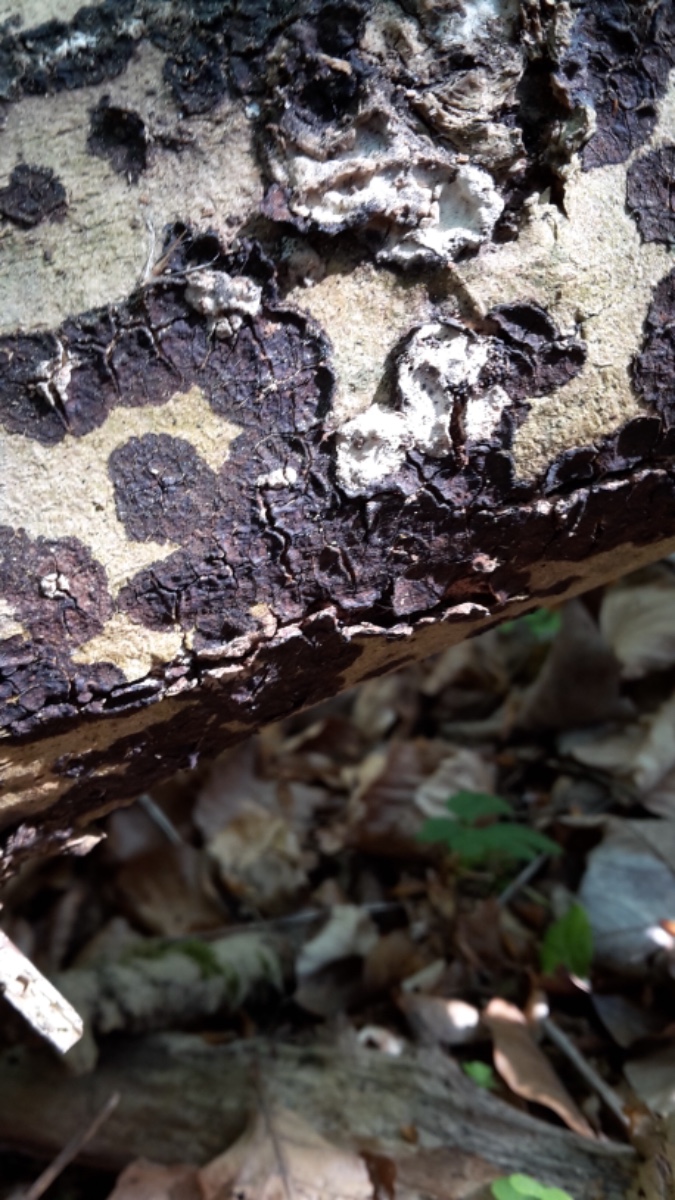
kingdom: Fungi
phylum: Basidiomycota
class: Agaricomycetes
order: Russulales
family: Peniophoraceae
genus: Peniophora
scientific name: Peniophora
